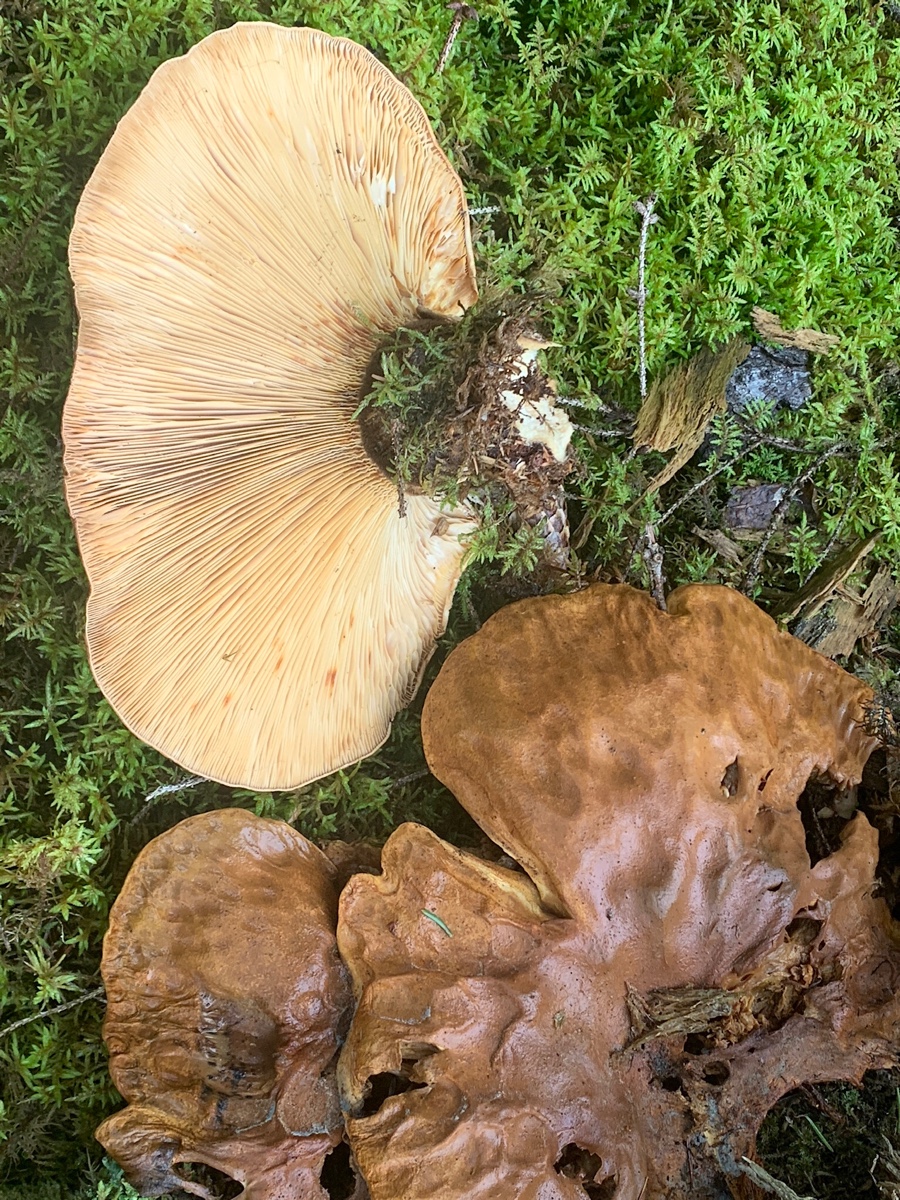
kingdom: Fungi
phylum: Basidiomycota
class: Agaricomycetes
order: Boletales
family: Tapinellaceae
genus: Tapinella
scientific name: Tapinella atrotomentosa
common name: sortfiltet viftesvamp
